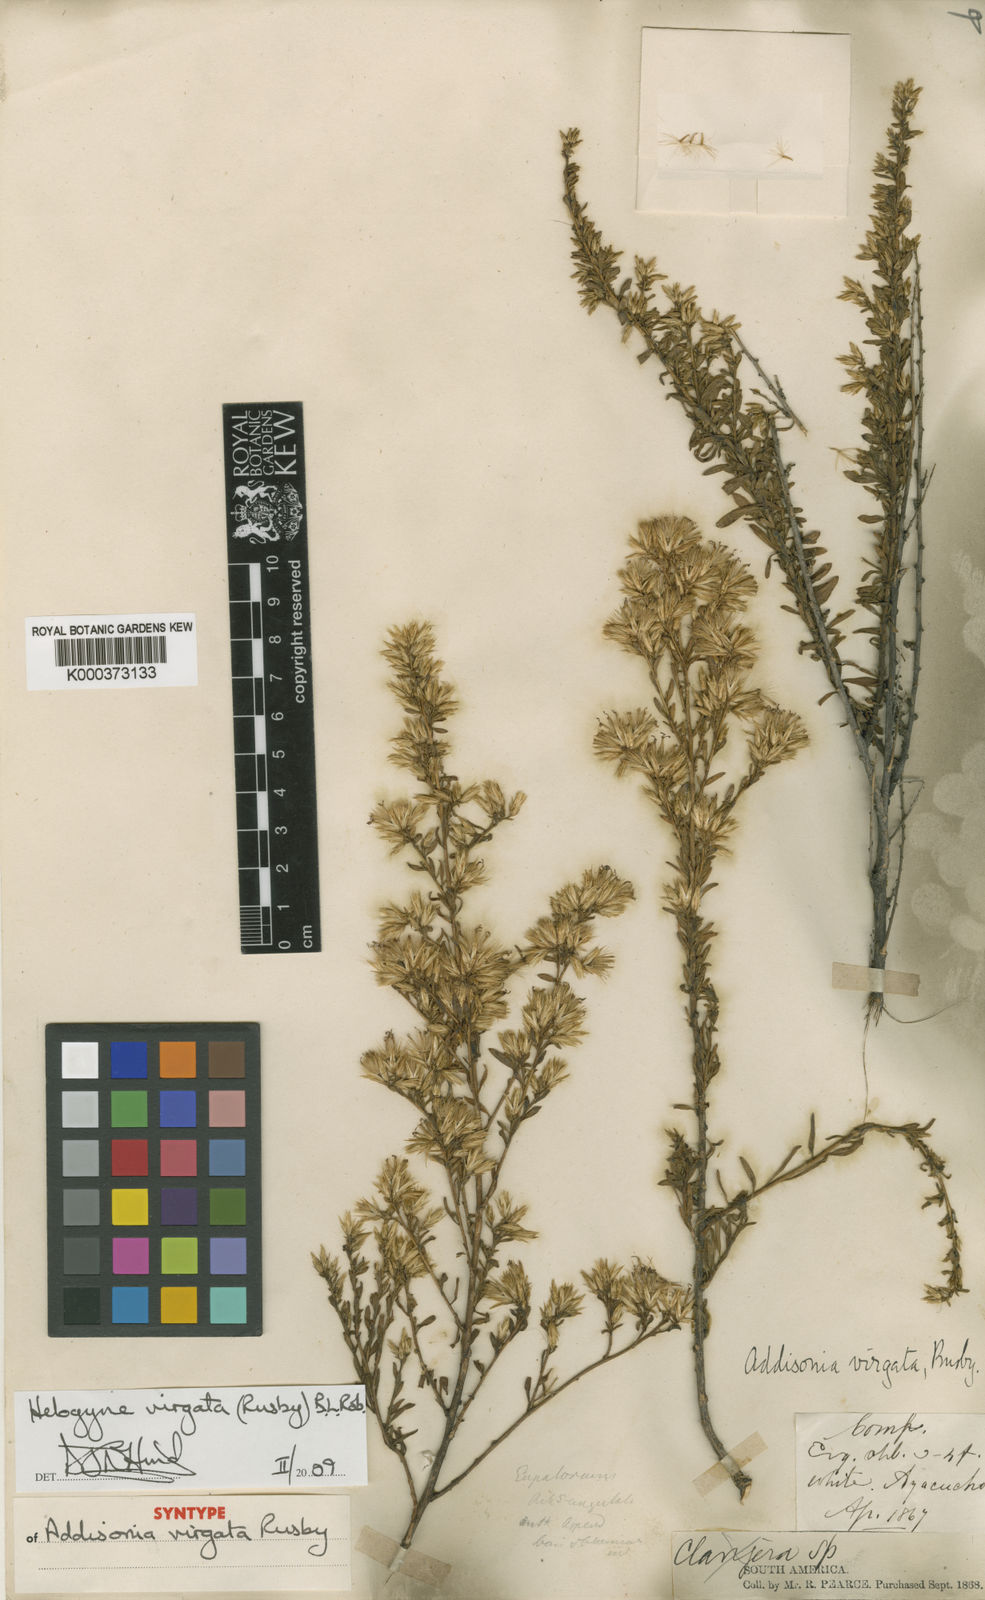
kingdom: Plantae
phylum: Tracheophyta
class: Magnoliopsida
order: Asterales
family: Asteraceae
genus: Helogyne
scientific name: Helogyne virgata
